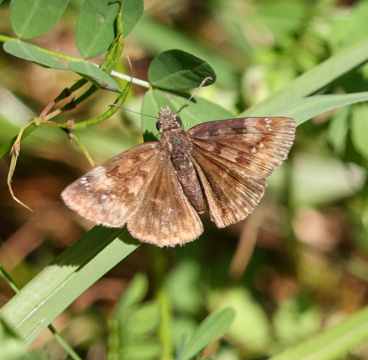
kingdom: Animalia
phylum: Arthropoda
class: Insecta
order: Lepidoptera
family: Hesperiidae
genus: Gesta
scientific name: Gesta
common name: Wild Indigo Duskywing
